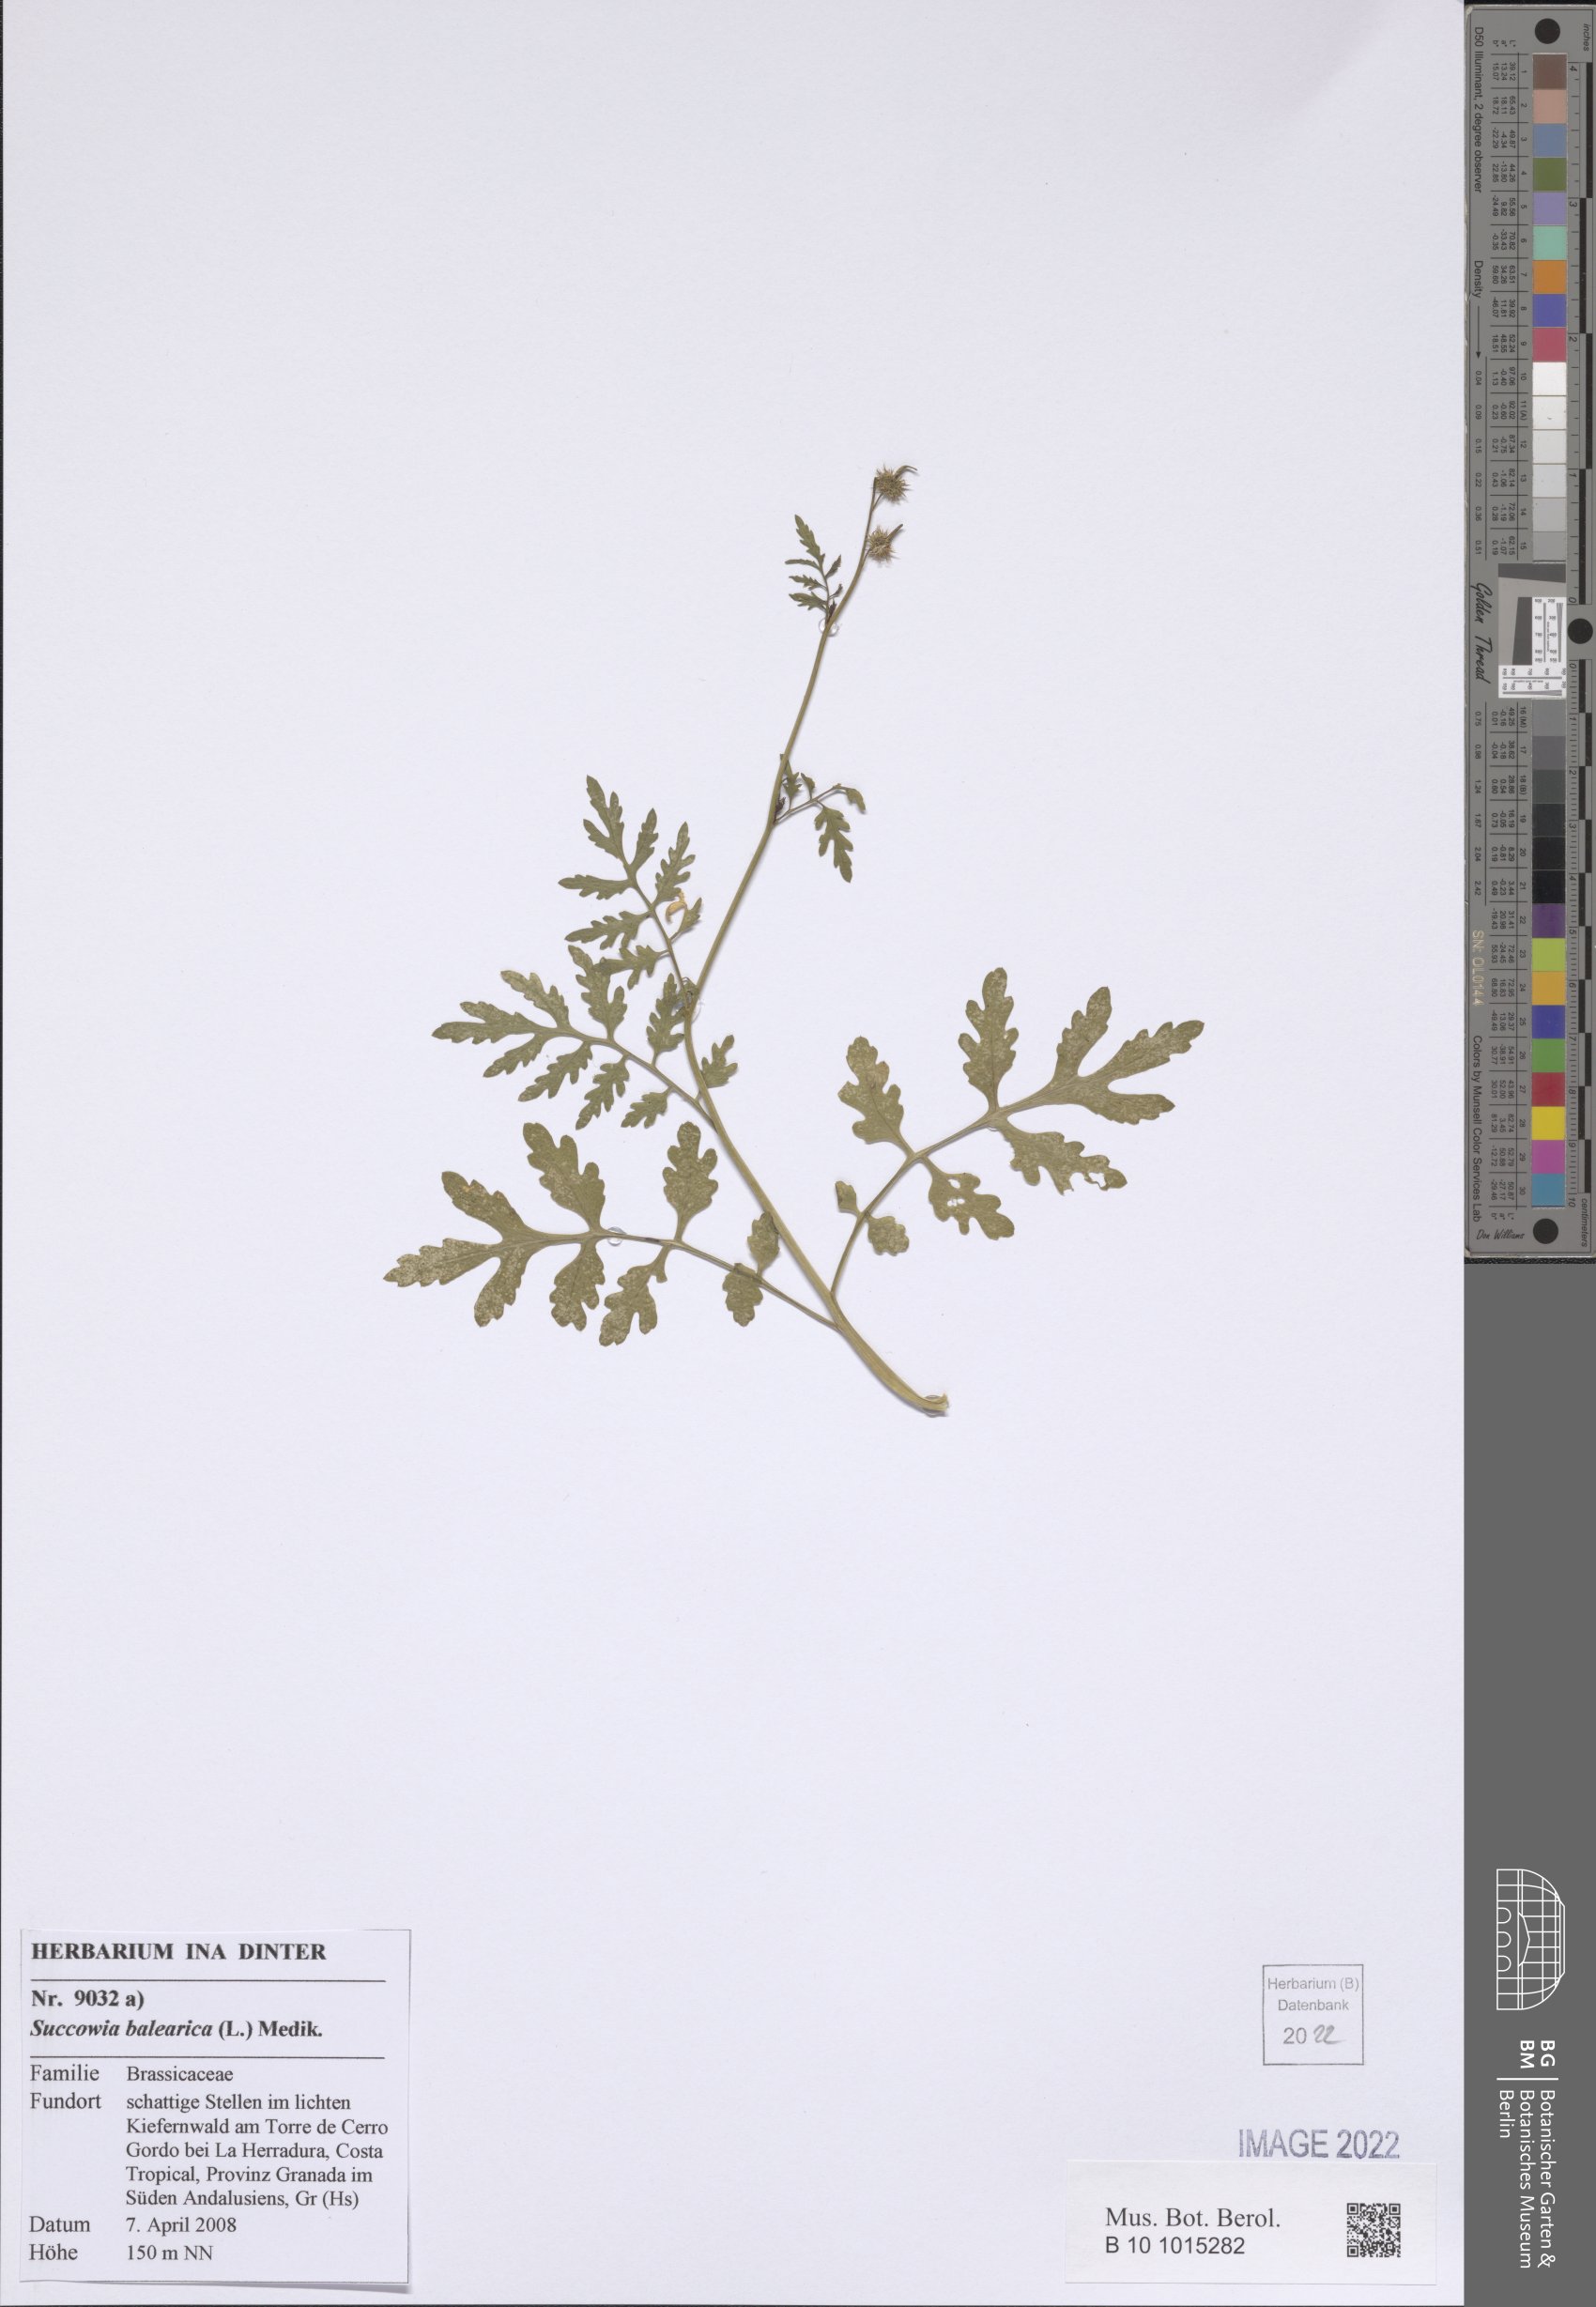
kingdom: Plantae
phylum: Tracheophyta
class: Magnoliopsida
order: Brassicales
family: Brassicaceae
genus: Succowia
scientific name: Succowia balearica
